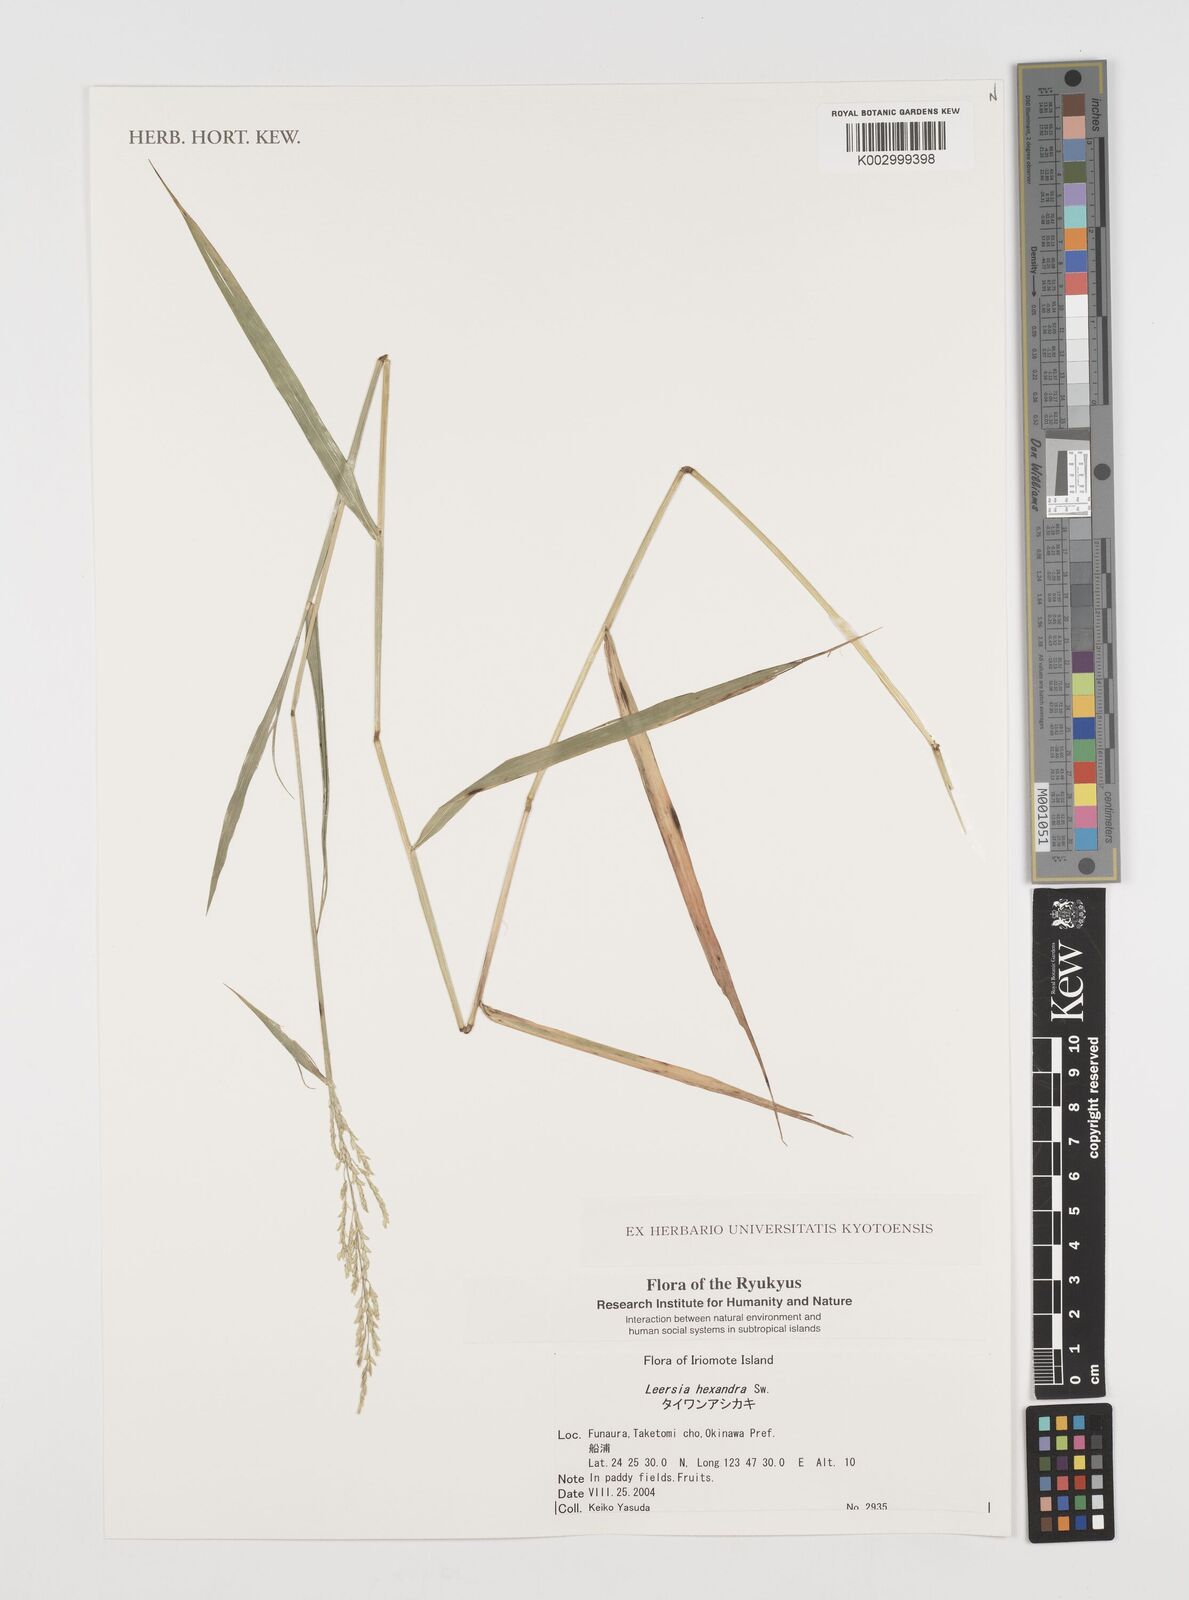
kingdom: Plantae
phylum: Tracheophyta
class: Liliopsida
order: Poales
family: Poaceae
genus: Leersia
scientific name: Leersia hexandra
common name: Southern cut grass
